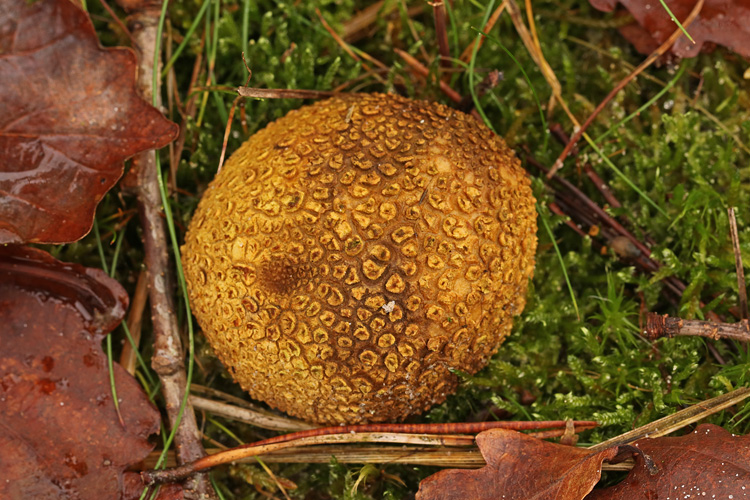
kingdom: Fungi
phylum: Basidiomycota
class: Agaricomycetes
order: Boletales
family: Sclerodermataceae
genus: Scleroderma
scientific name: Scleroderma citrinum
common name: almindelig bruskbold
